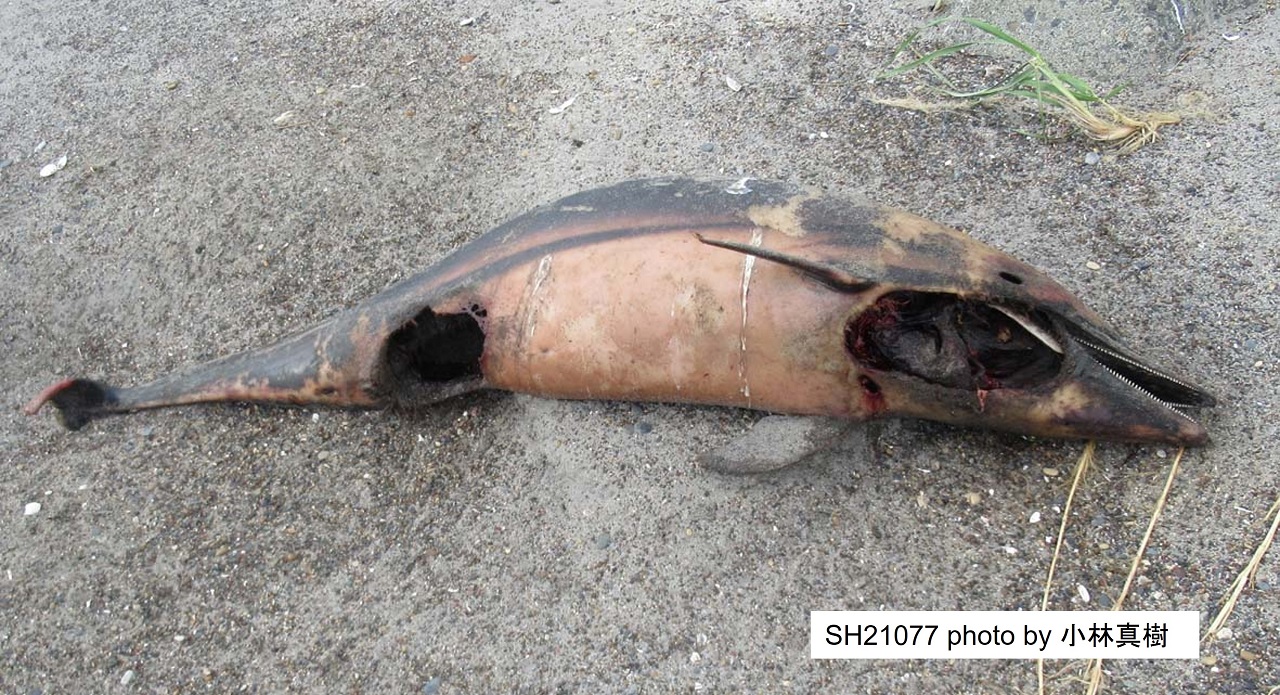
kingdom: Animalia
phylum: Chordata
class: Mammalia
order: Cetacea
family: Delphinidae
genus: Stenella
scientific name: Stenella coeruleoalba
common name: Striped dolphin
